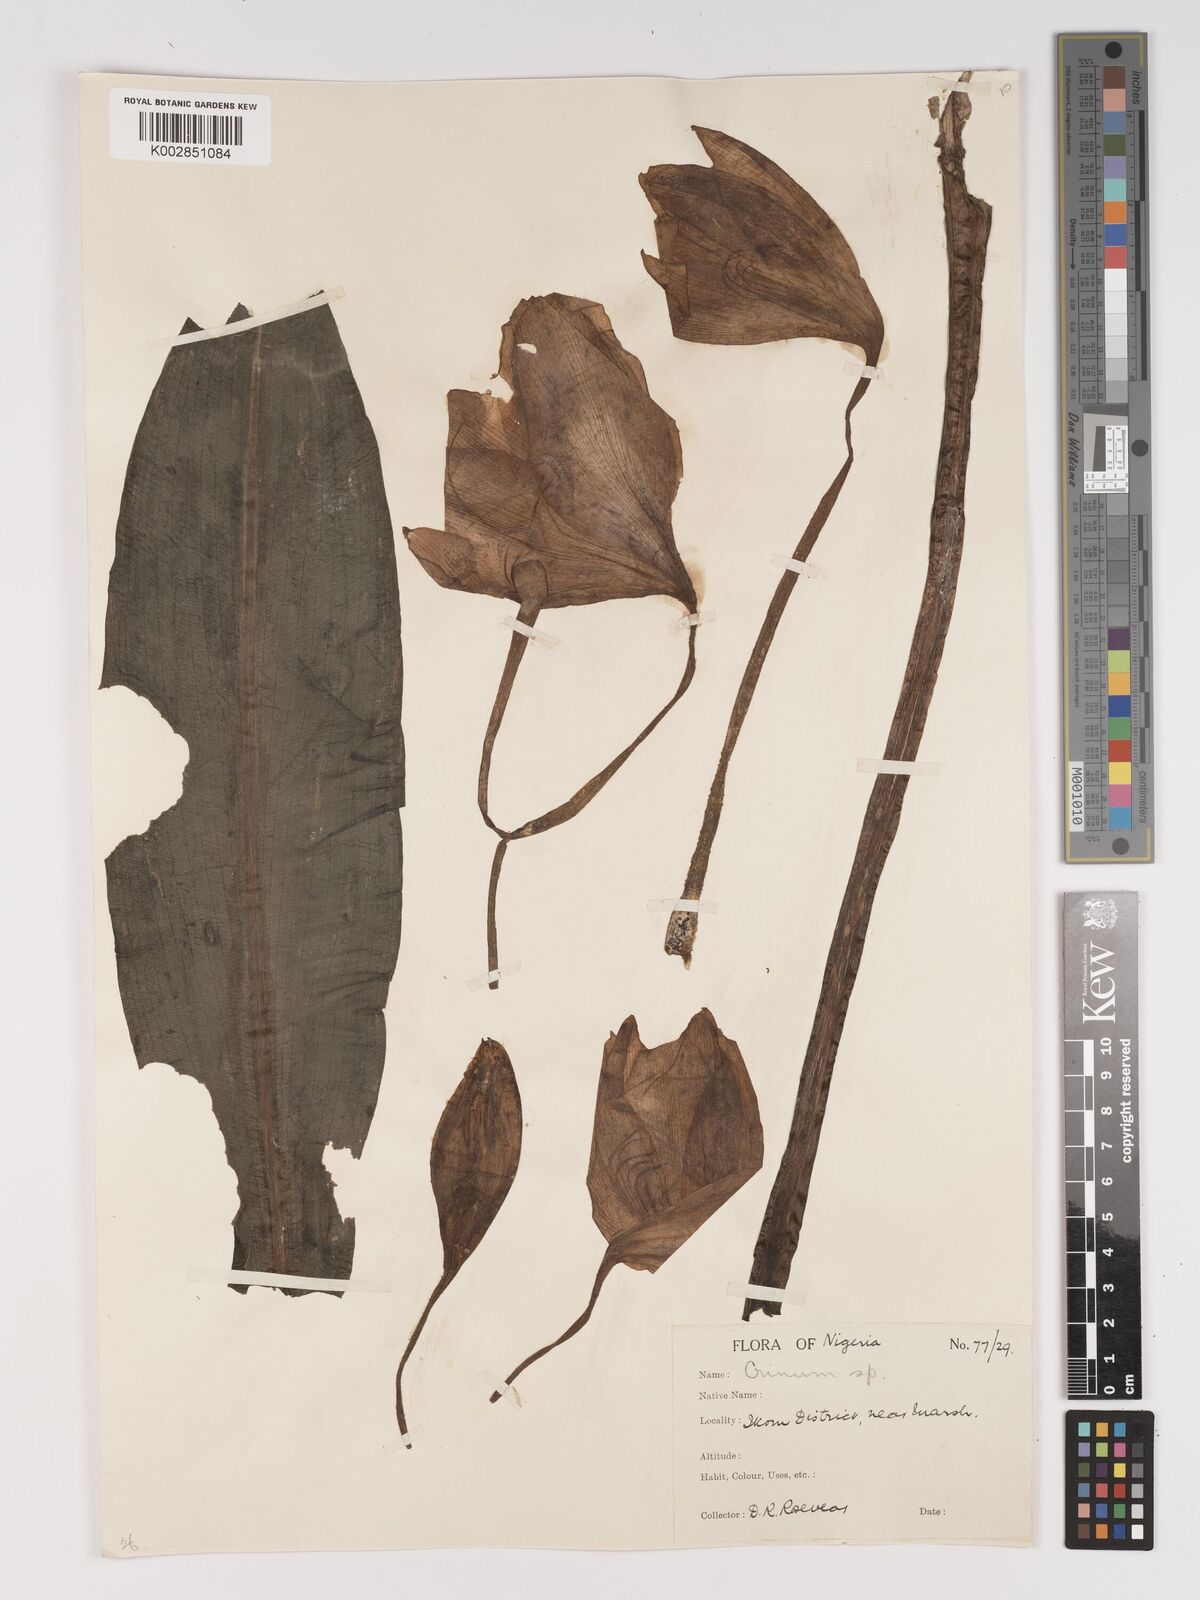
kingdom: Plantae
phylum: Tracheophyta
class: Liliopsida
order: Asparagales
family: Amaryllidaceae
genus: Crinum
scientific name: Crinum jagus
